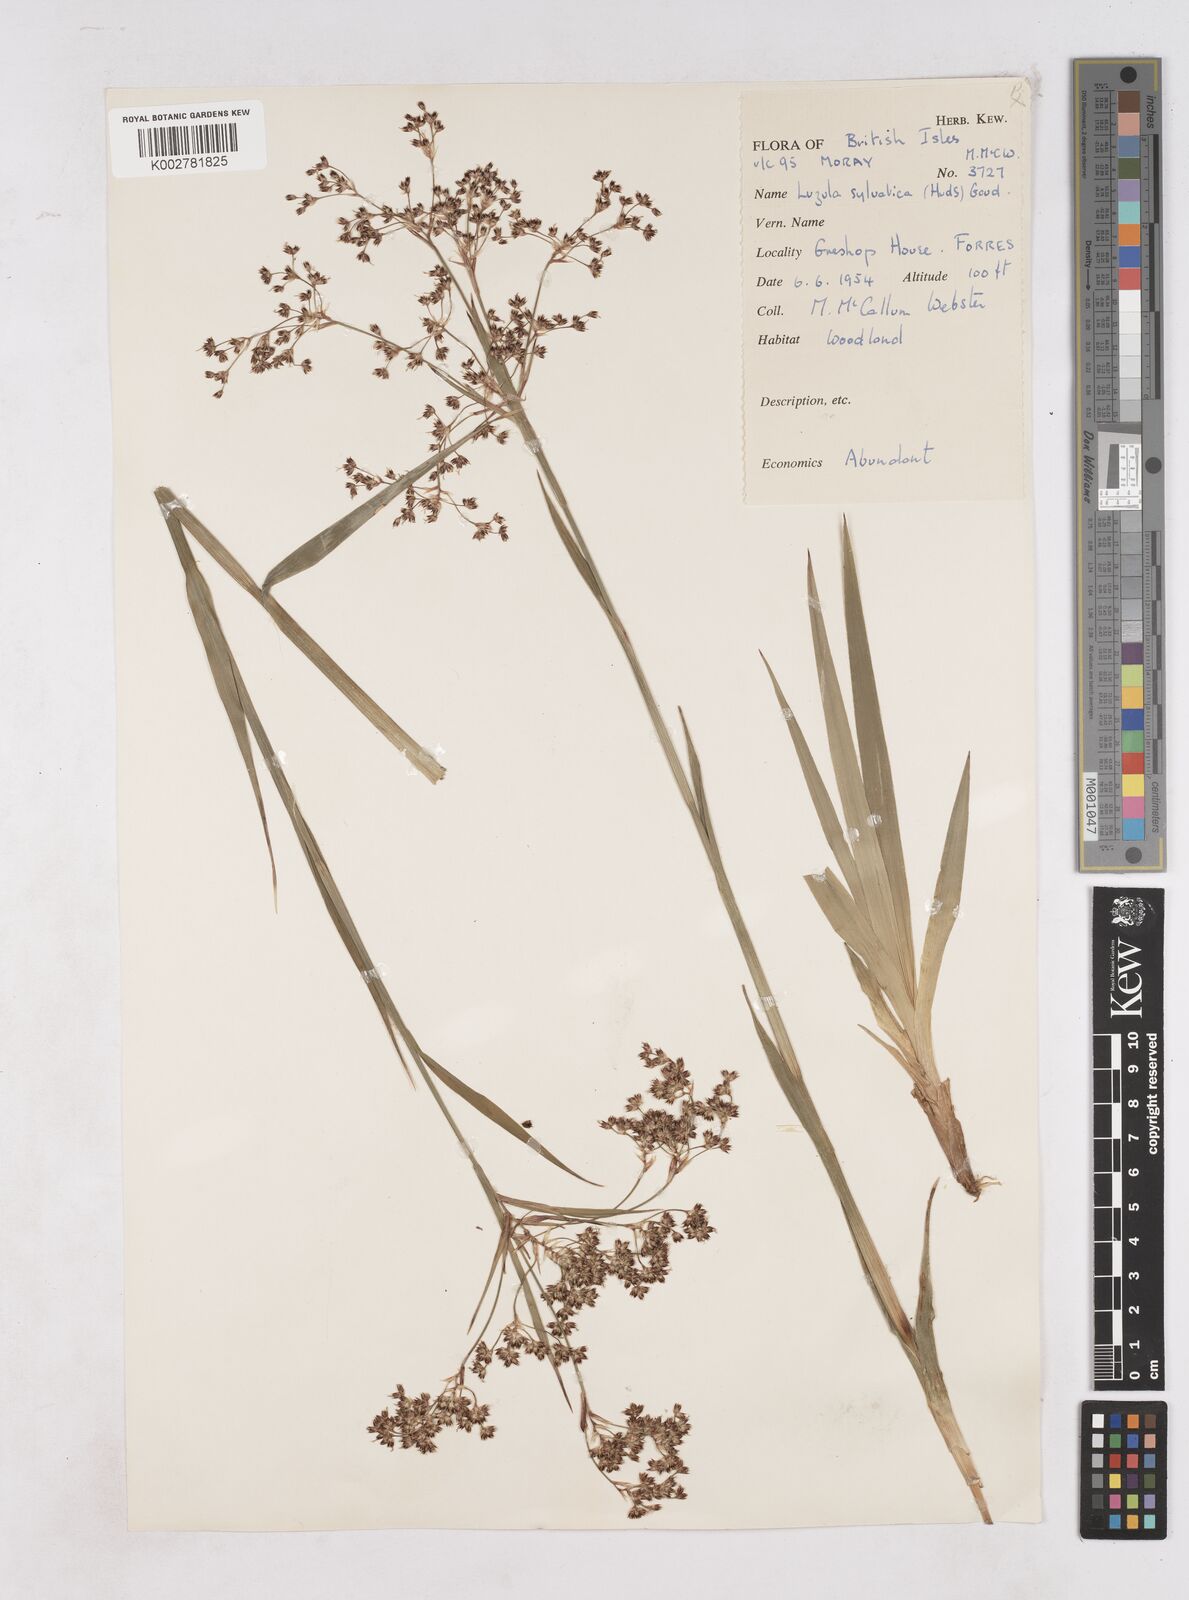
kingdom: Plantae
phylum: Tracheophyta
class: Liliopsida
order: Poales
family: Juncaceae
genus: Luzula
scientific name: Luzula sylvatica
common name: Great wood-rush
